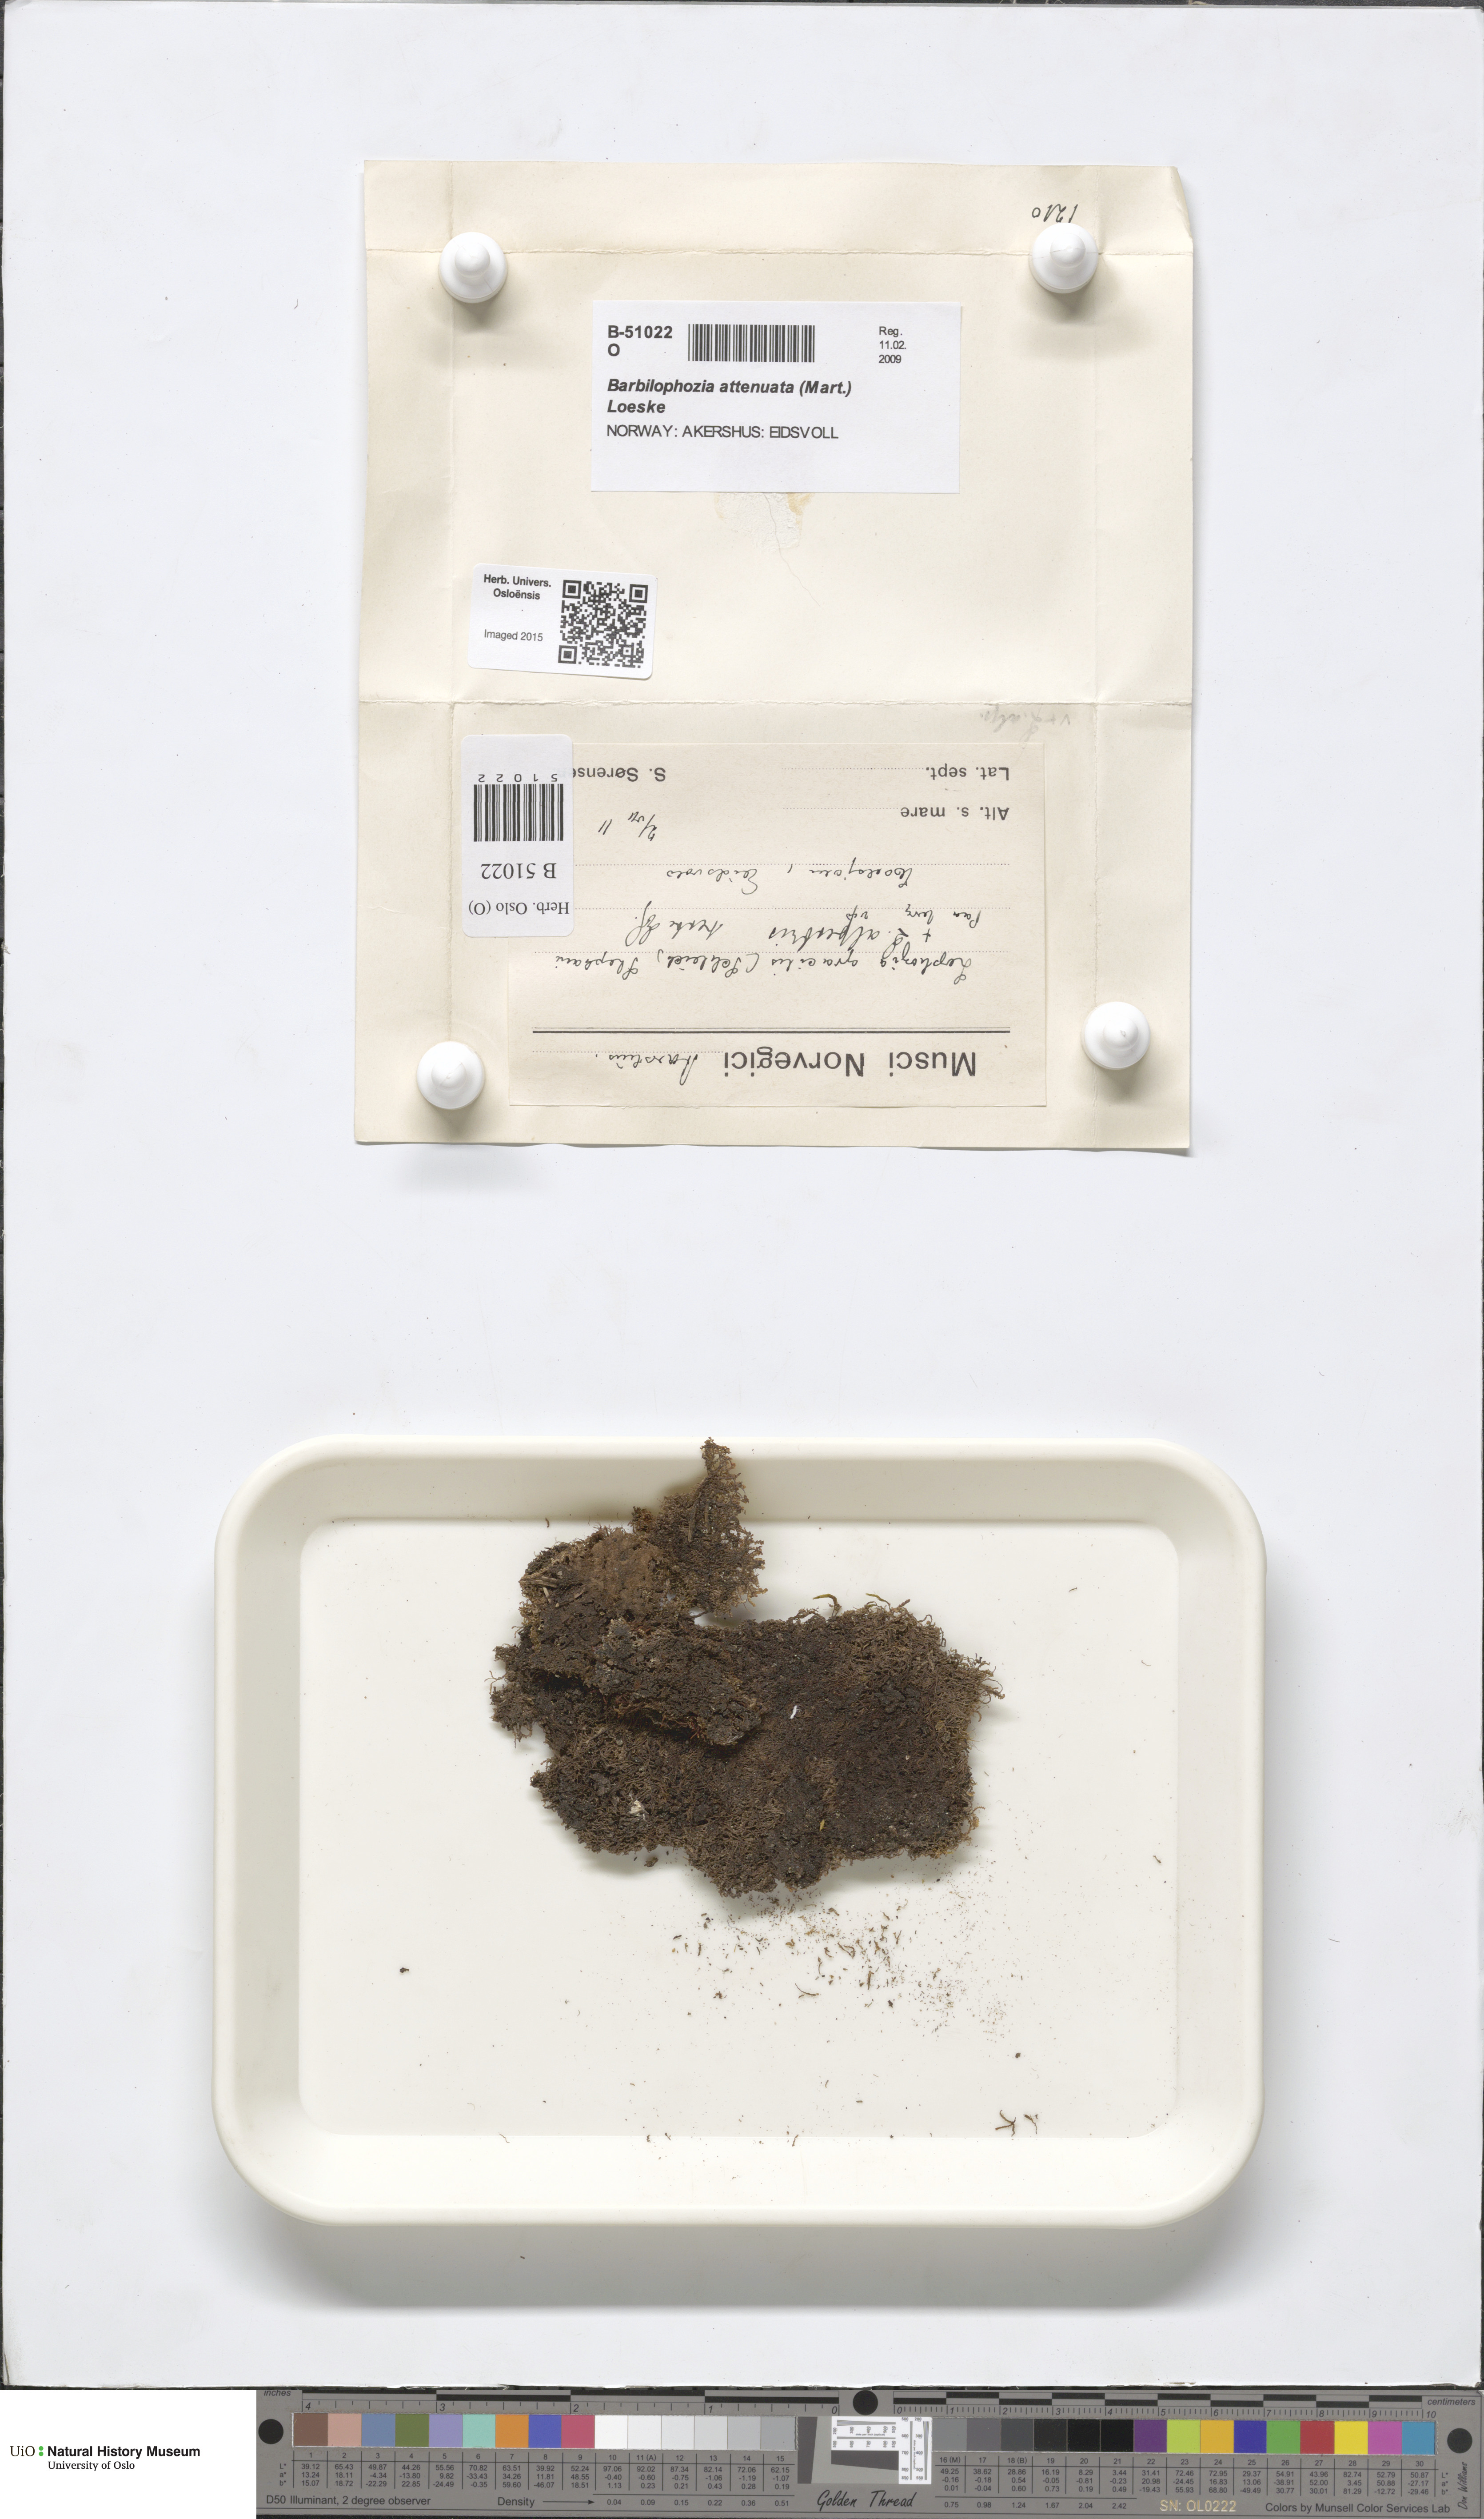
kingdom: Plantae
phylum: Marchantiophyta
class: Jungermanniopsida
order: Jungermanniales
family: Anastrophyllaceae
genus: Neoorthocaulis
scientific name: Neoorthocaulis attenuatus
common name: Trunk pawwort
